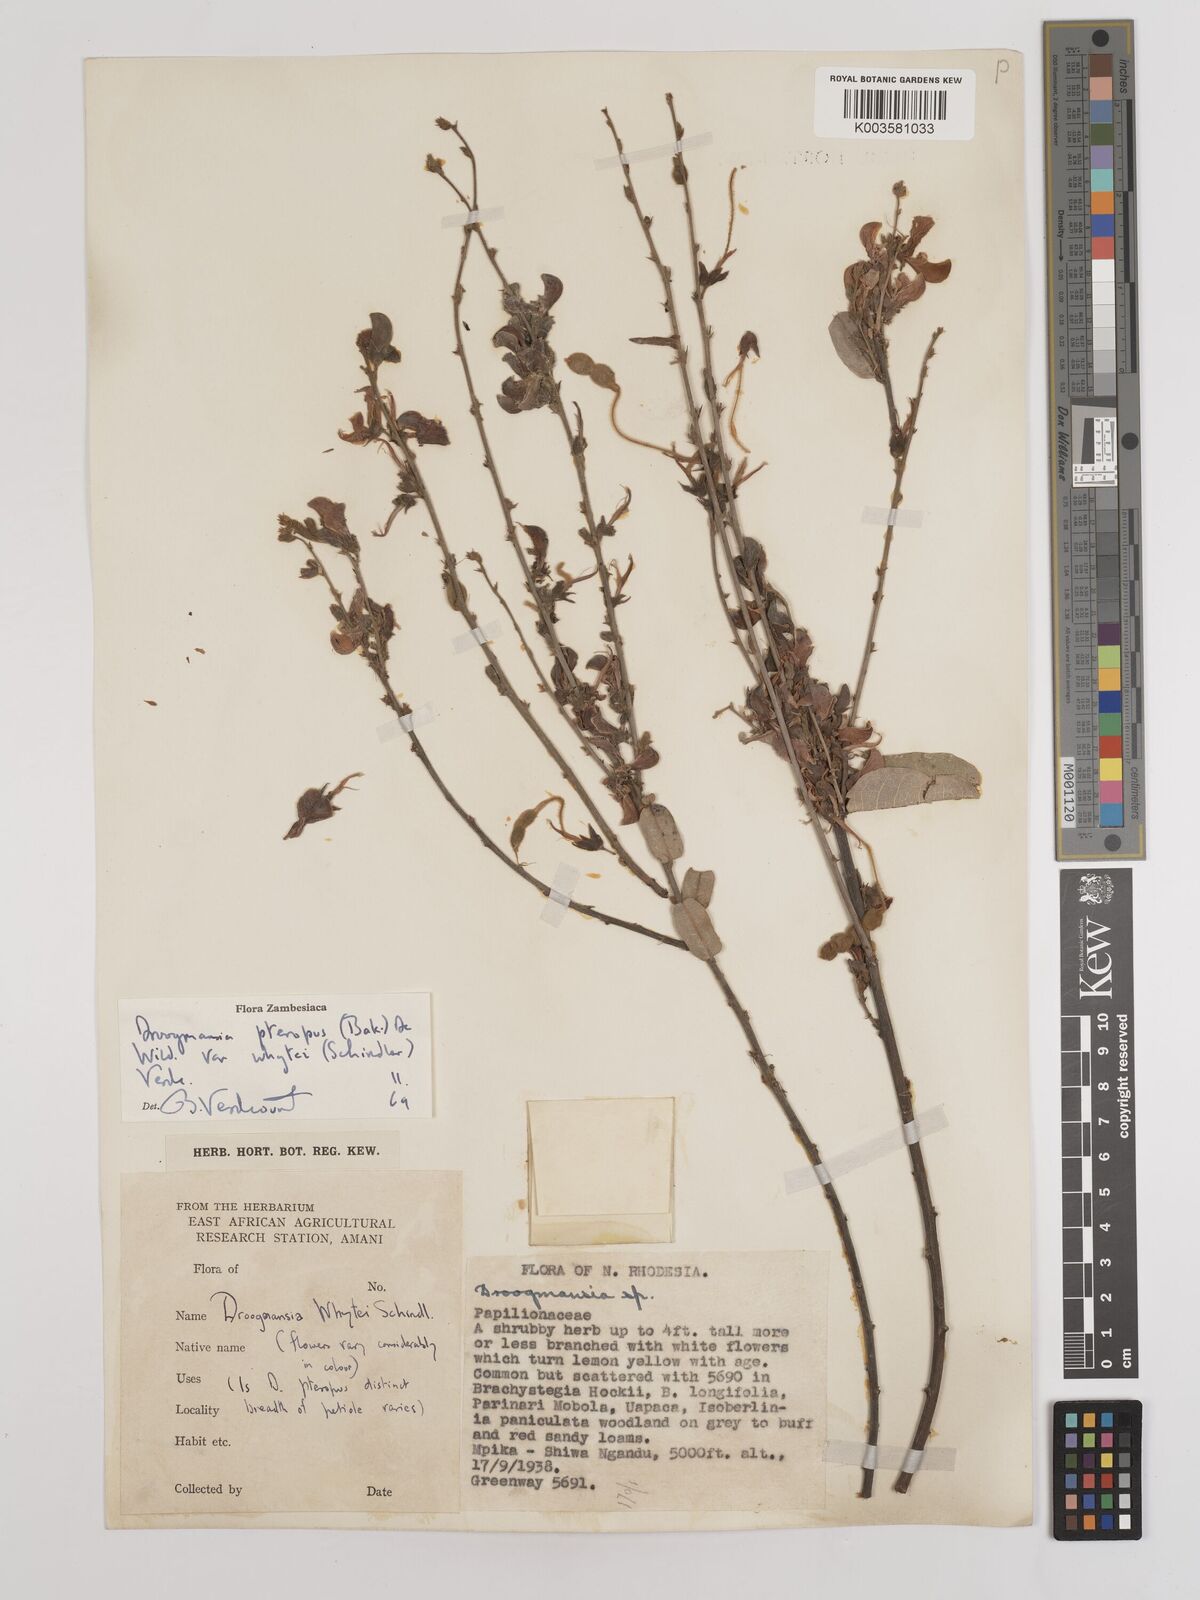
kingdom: Plantae
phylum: Tracheophyta
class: Magnoliopsida
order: Fabales
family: Fabaceae
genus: Droogmansia
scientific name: Droogmansia pteropus
